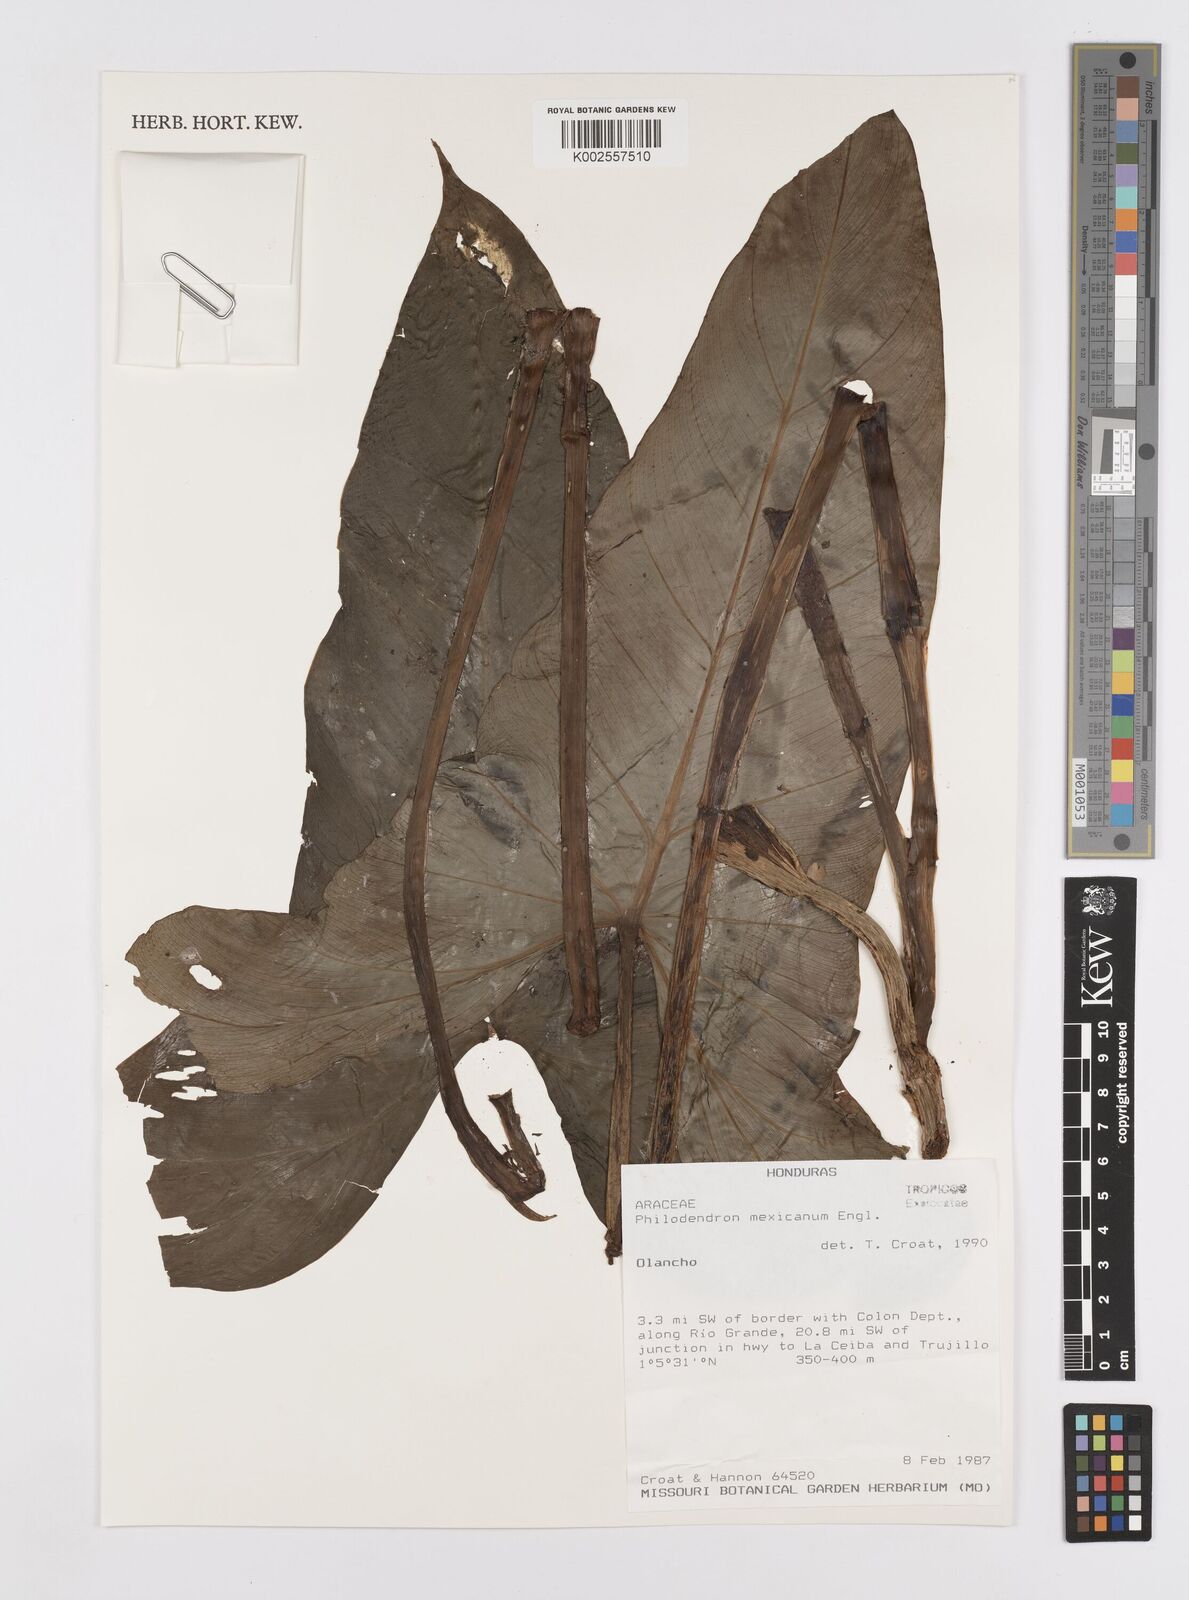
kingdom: Plantae
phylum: Tracheophyta
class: Liliopsida
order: Alismatales
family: Araceae
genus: Philodendron
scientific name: Philodendron mexicanum
